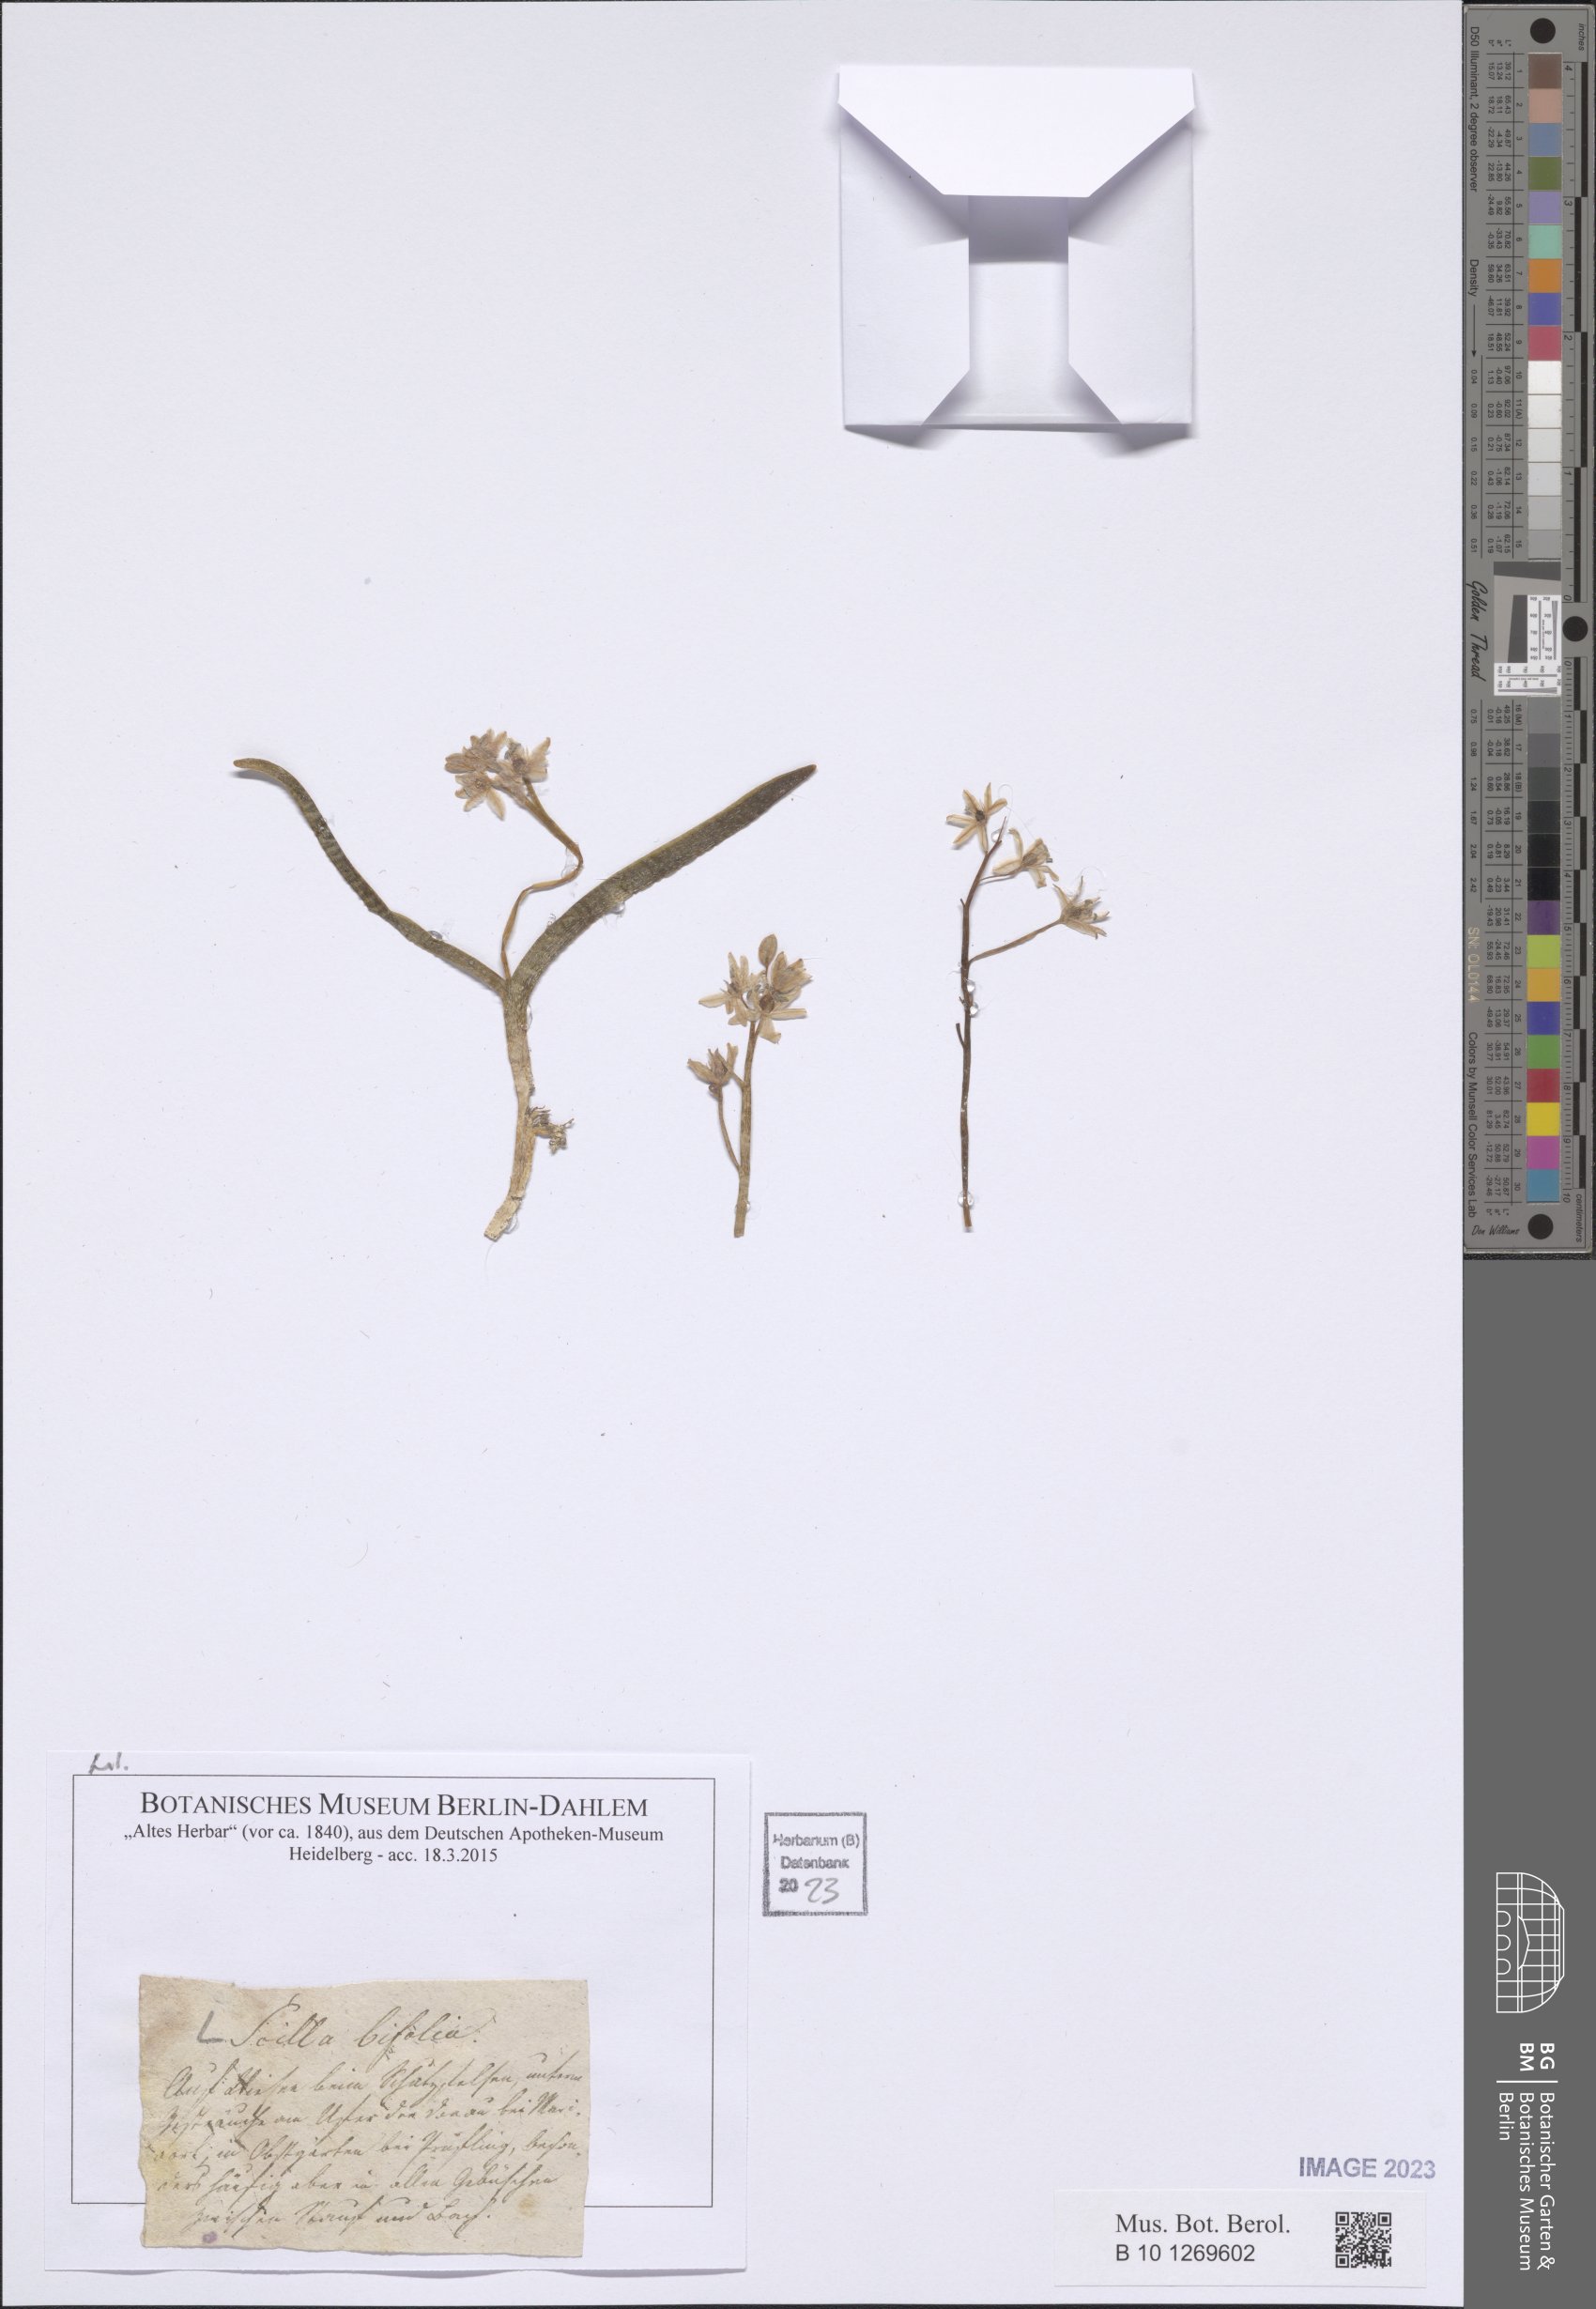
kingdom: Plantae
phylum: Tracheophyta
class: Liliopsida
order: Asparagales
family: Asparagaceae
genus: Scilla
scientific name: Scilla bifolia
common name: Alpine squill
